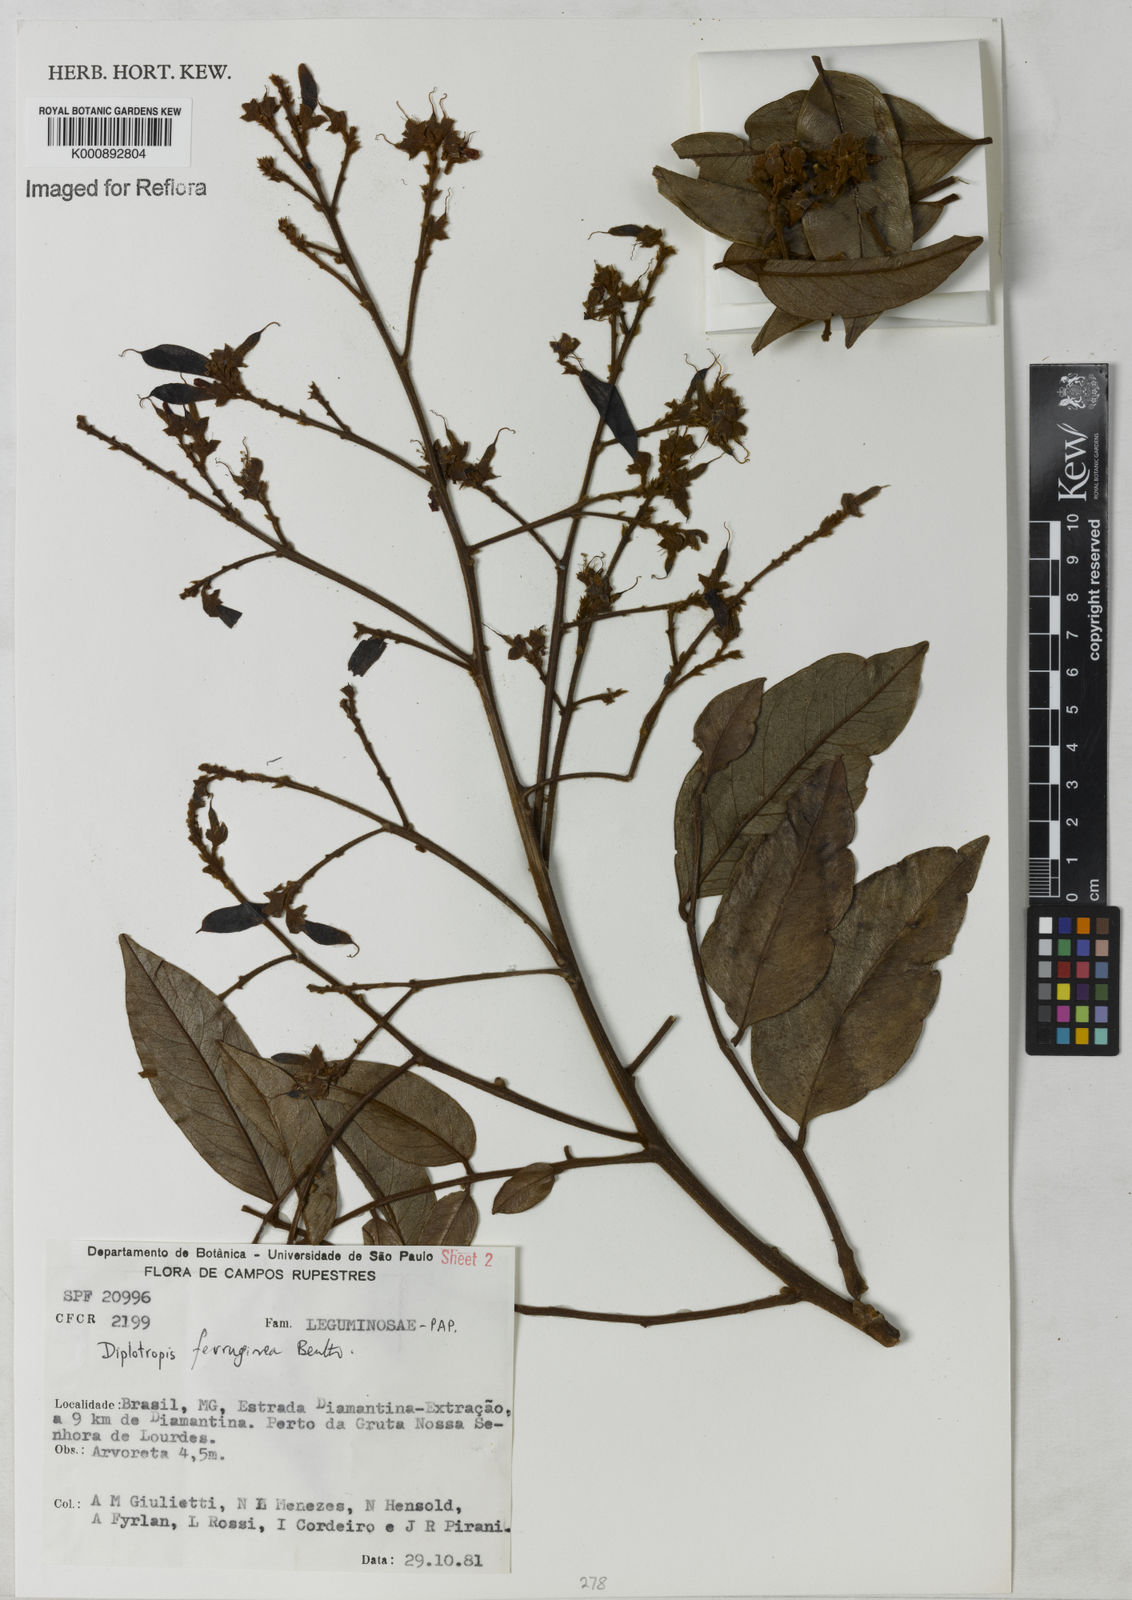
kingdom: Plantae
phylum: Tracheophyta
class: Magnoliopsida
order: Fabales
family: Fabaceae
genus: Diplotropis
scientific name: Diplotropis ferruginea
